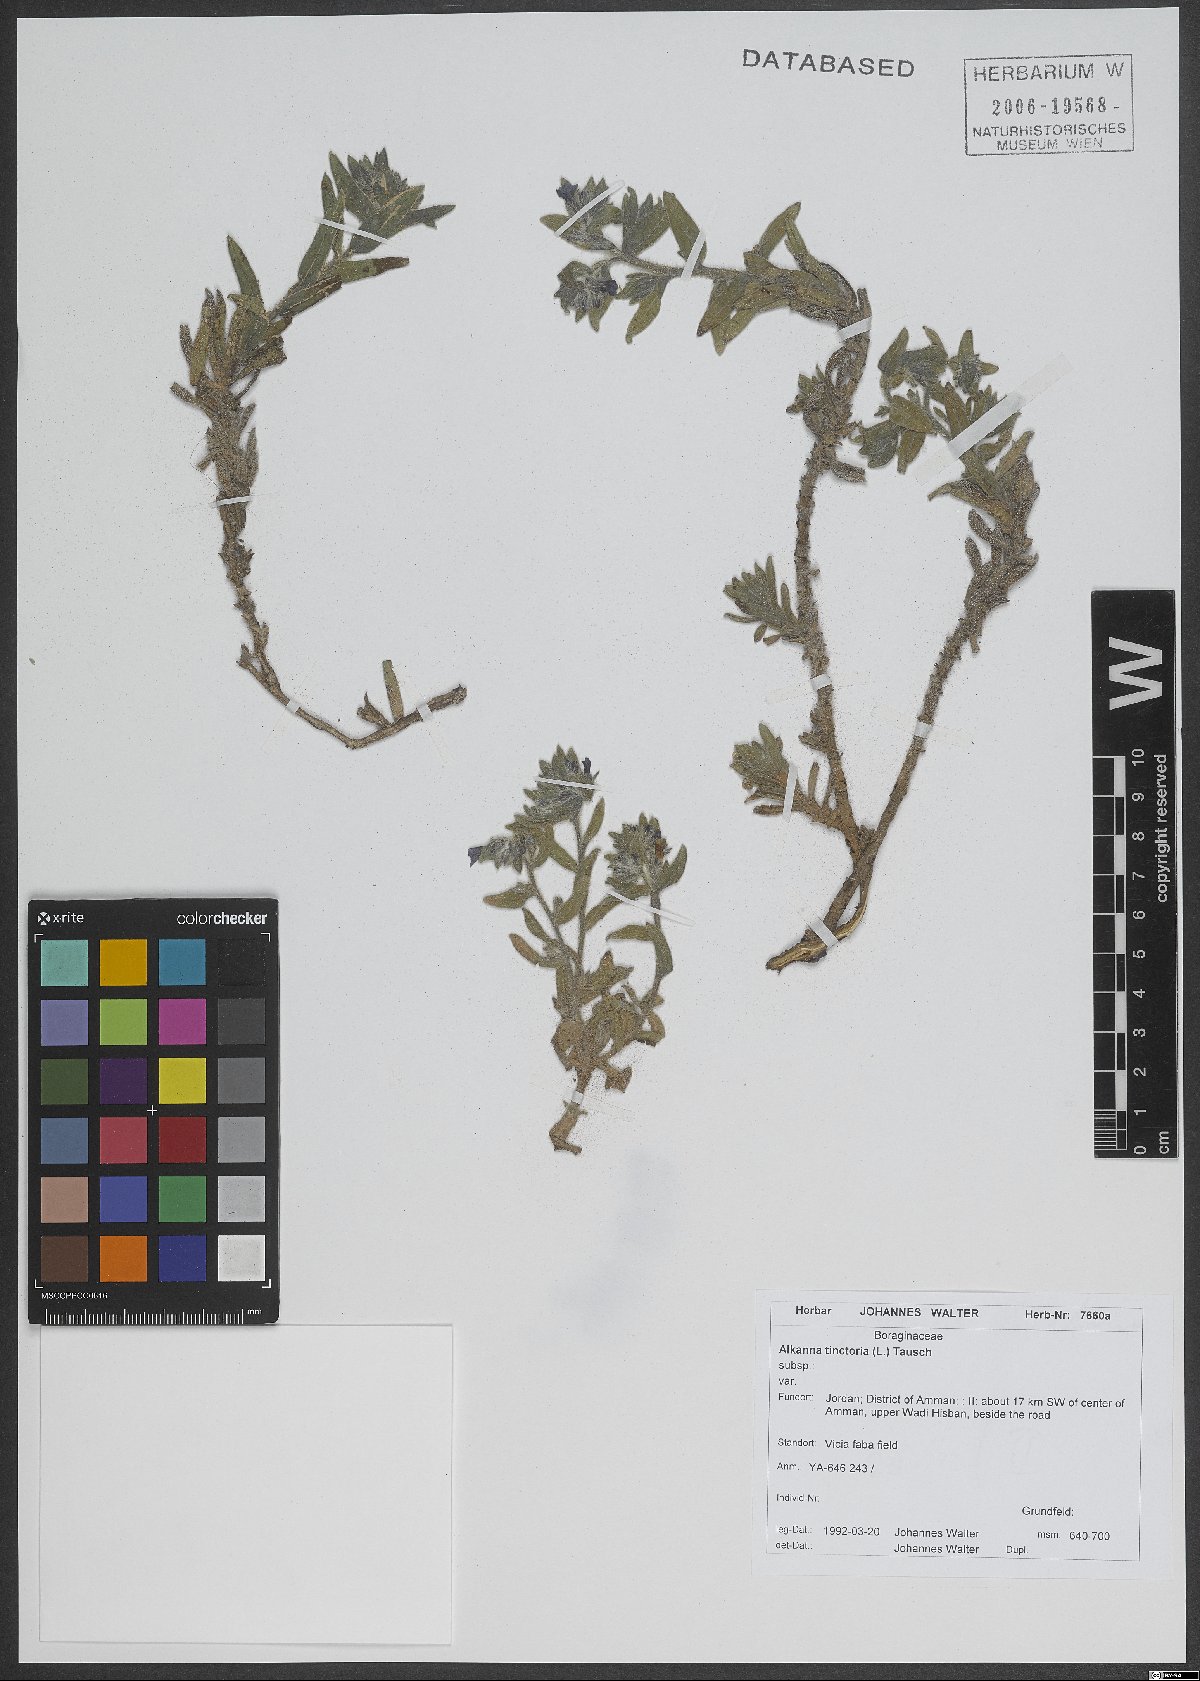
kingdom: Plantae
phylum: Tracheophyta
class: Magnoliopsida
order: Boraginales
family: Boraginaceae
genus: Alkanna
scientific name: Alkanna tinctoria
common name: Dyer's-alkanet
